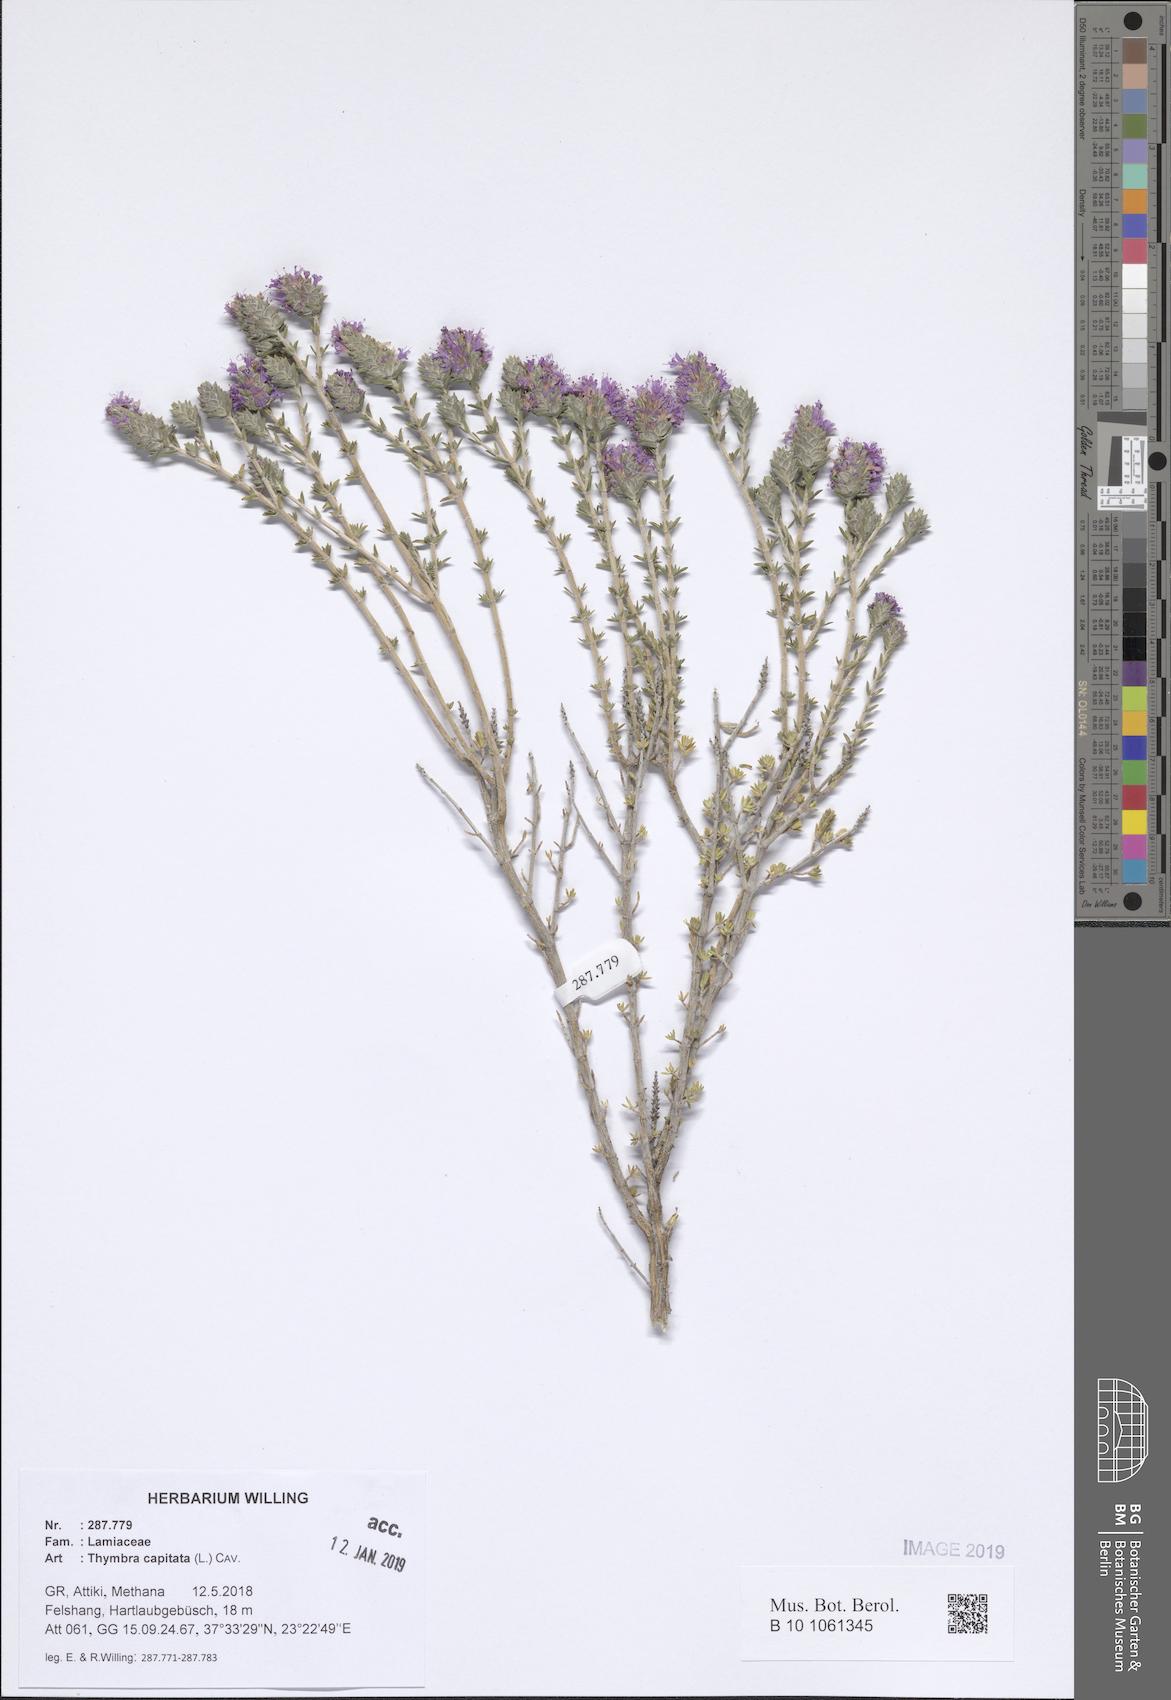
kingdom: Plantae
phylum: Tracheophyta
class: Magnoliopsida
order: Lamiales
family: Lamiaceae
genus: Thymbra
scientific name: Thymbra capitata
